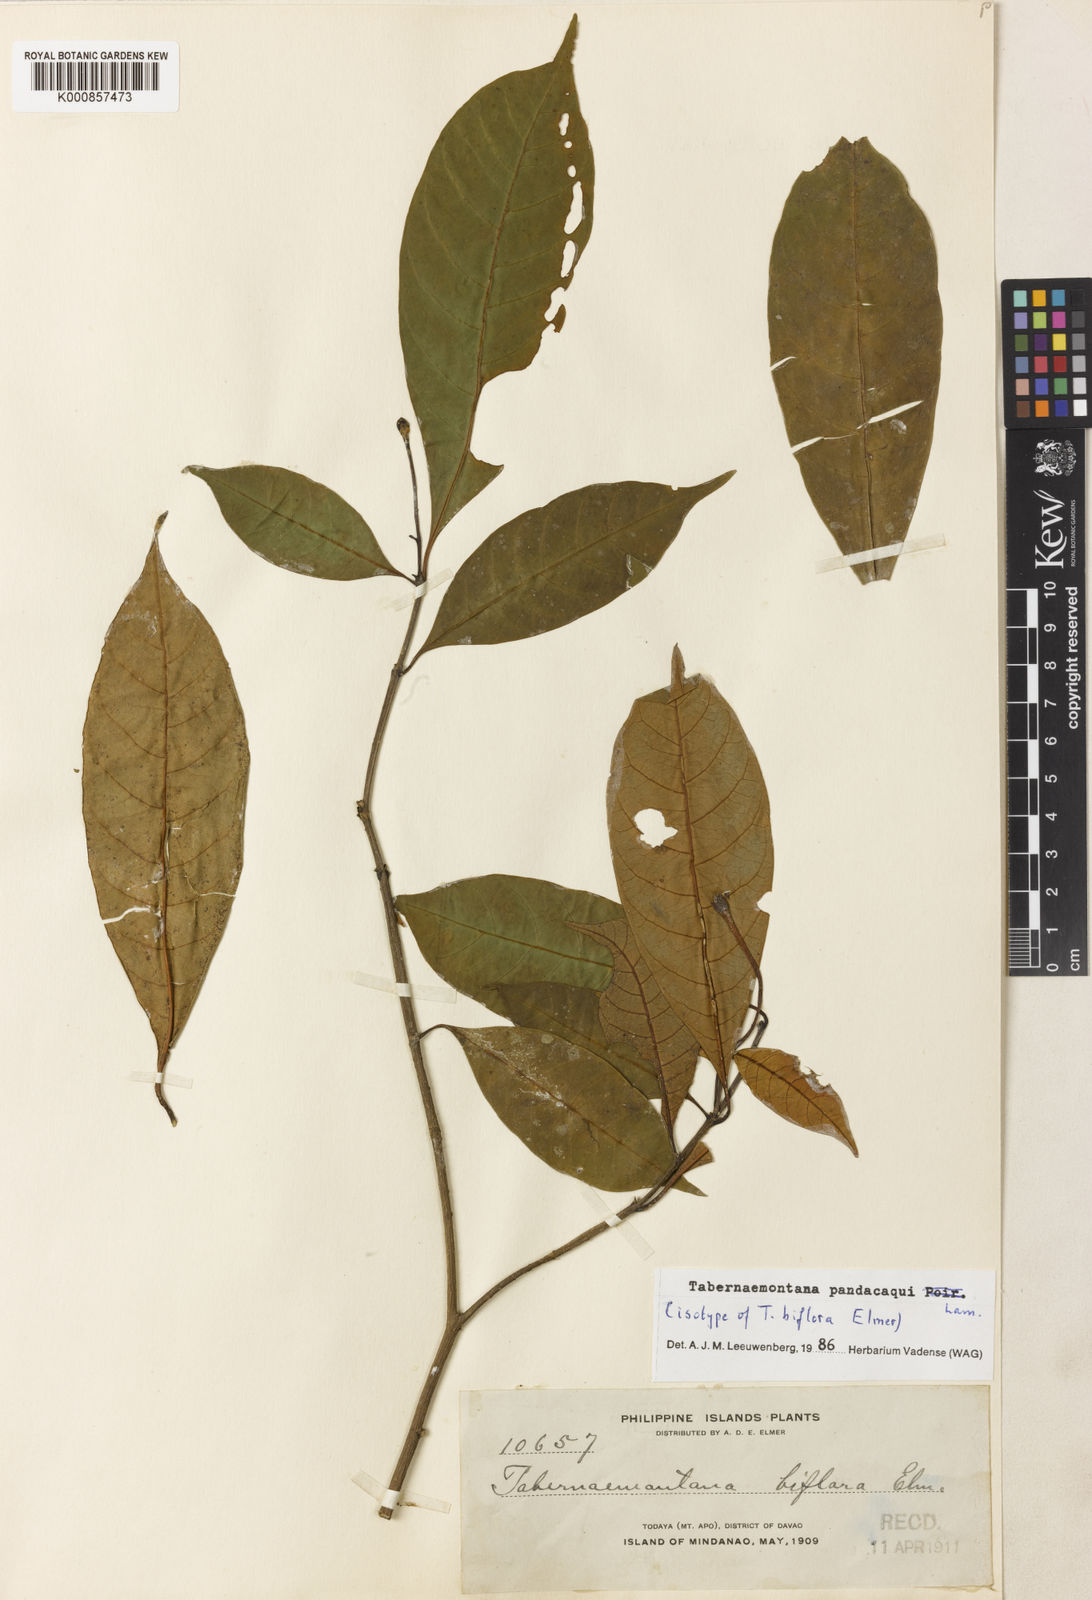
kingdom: Plantae
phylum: Tracheophyta
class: Magnoliopsida
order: Gentianales
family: Apocynaceae
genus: Tabernaemontana
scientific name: Tabernaemontana
